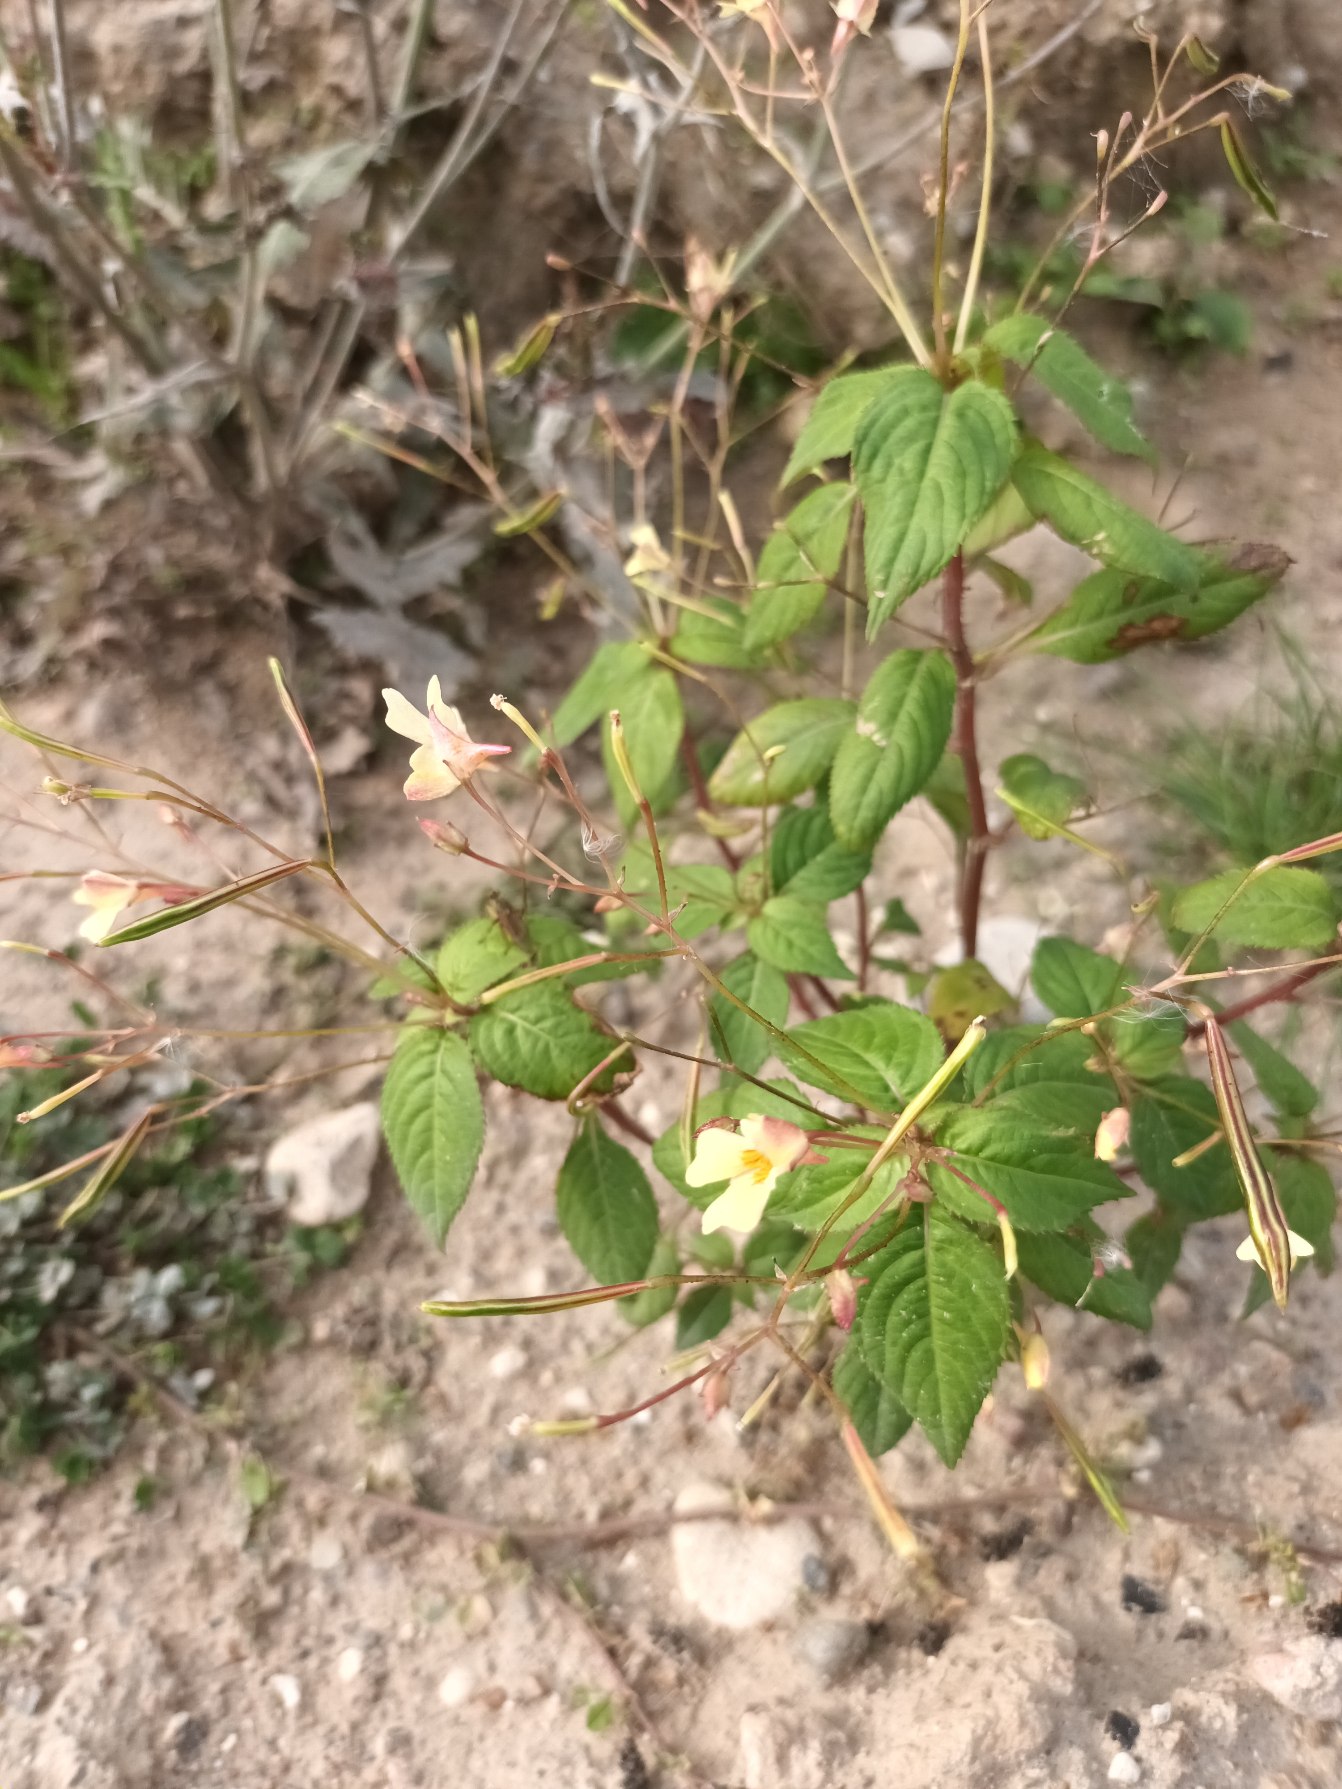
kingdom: Plantae
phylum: Tracheophyta
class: Magnoliopsida
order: Ericales
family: Balsaminaceae
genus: Impatiens
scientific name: Impatiens parviflora
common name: Småblomstret balsamin
